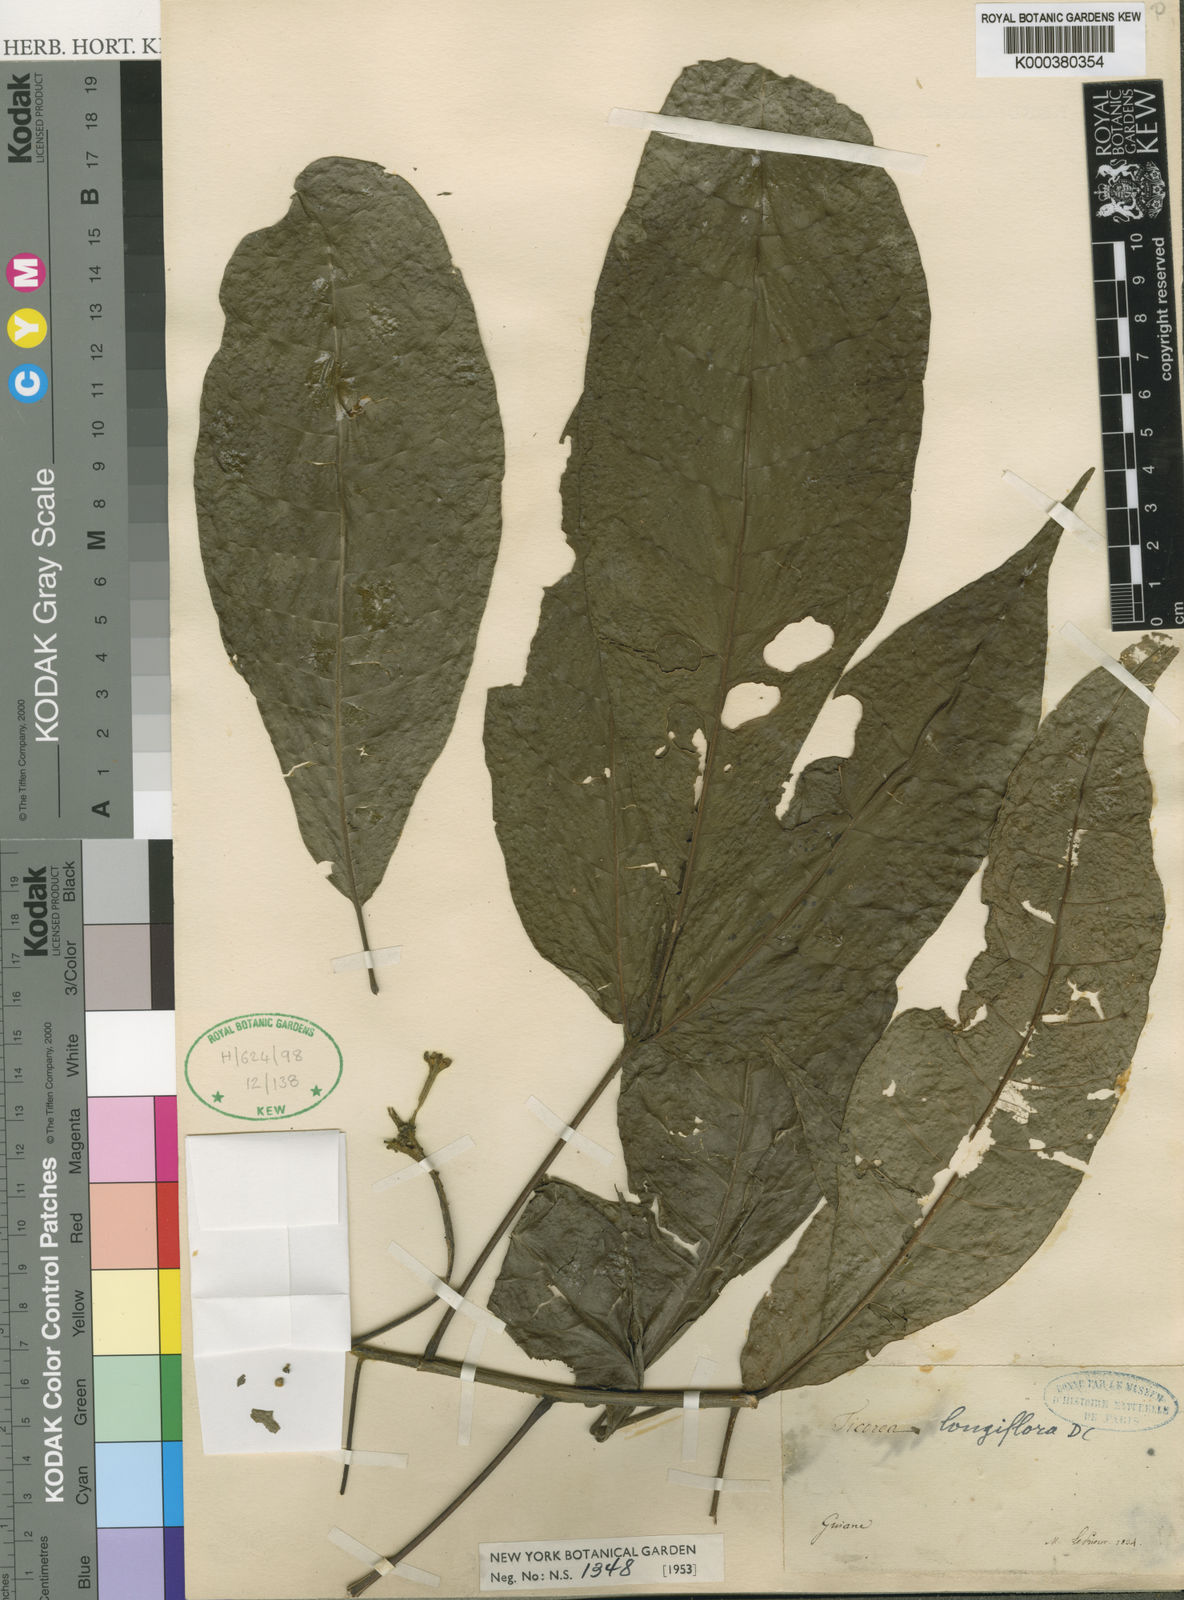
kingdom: Plantae
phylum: Tracheophyta
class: Magnoliopsida
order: Sapindales
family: Rutaceae
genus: Ticorea
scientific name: Ticorea longiflora
